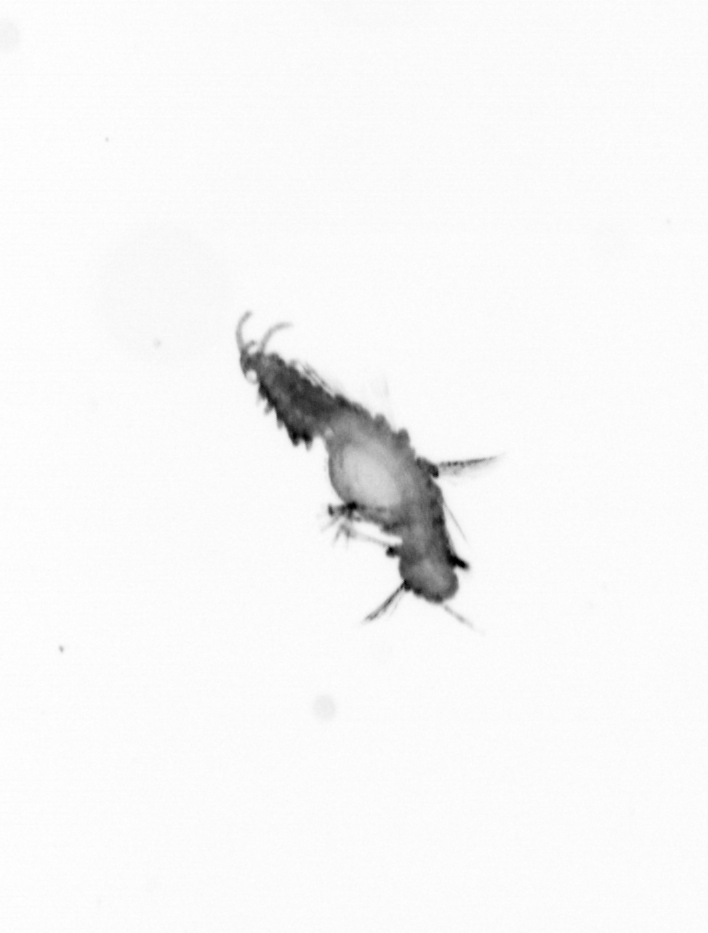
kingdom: Animalia
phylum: Annelida
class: Polychaeta
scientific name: Polychaeta
